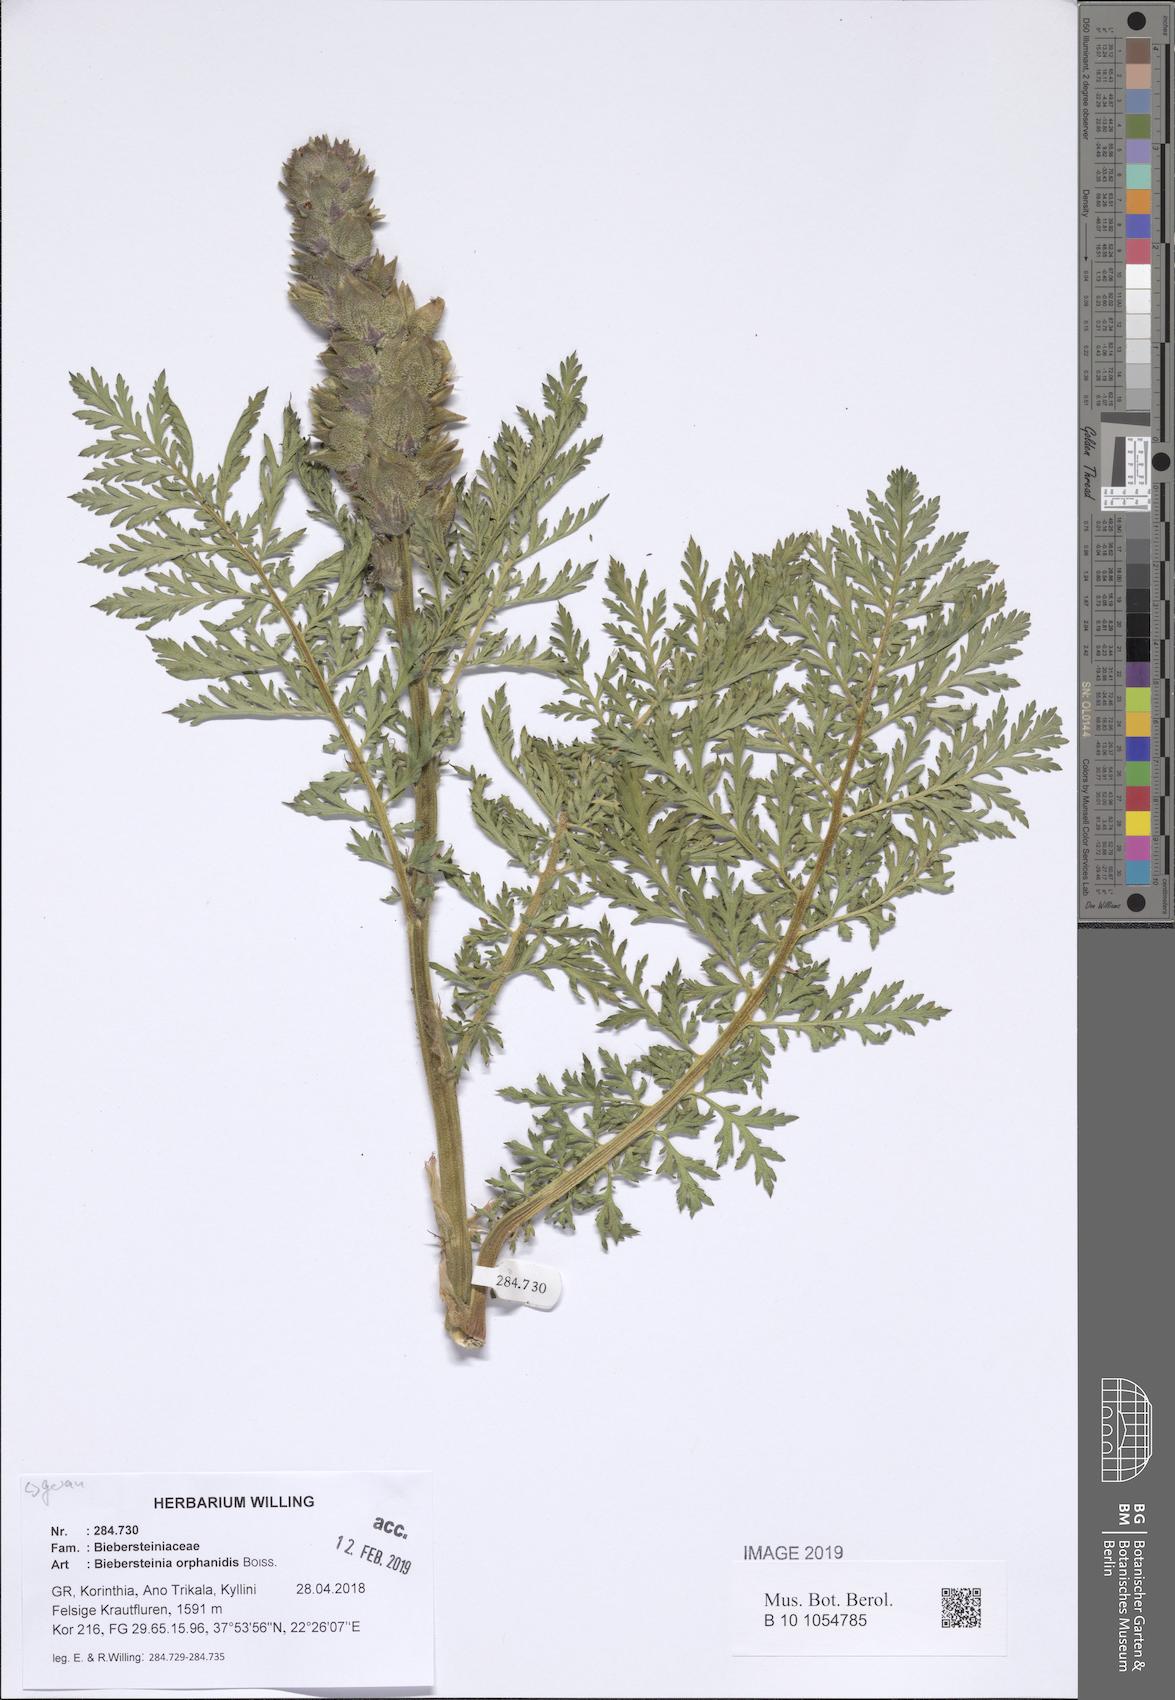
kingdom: Plantae
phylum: Tracheophyta
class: Magnoliopsida
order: Sapindales
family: Biebersteiniaceae
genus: Biebersteinia
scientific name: Biebersteinia orphanidis
